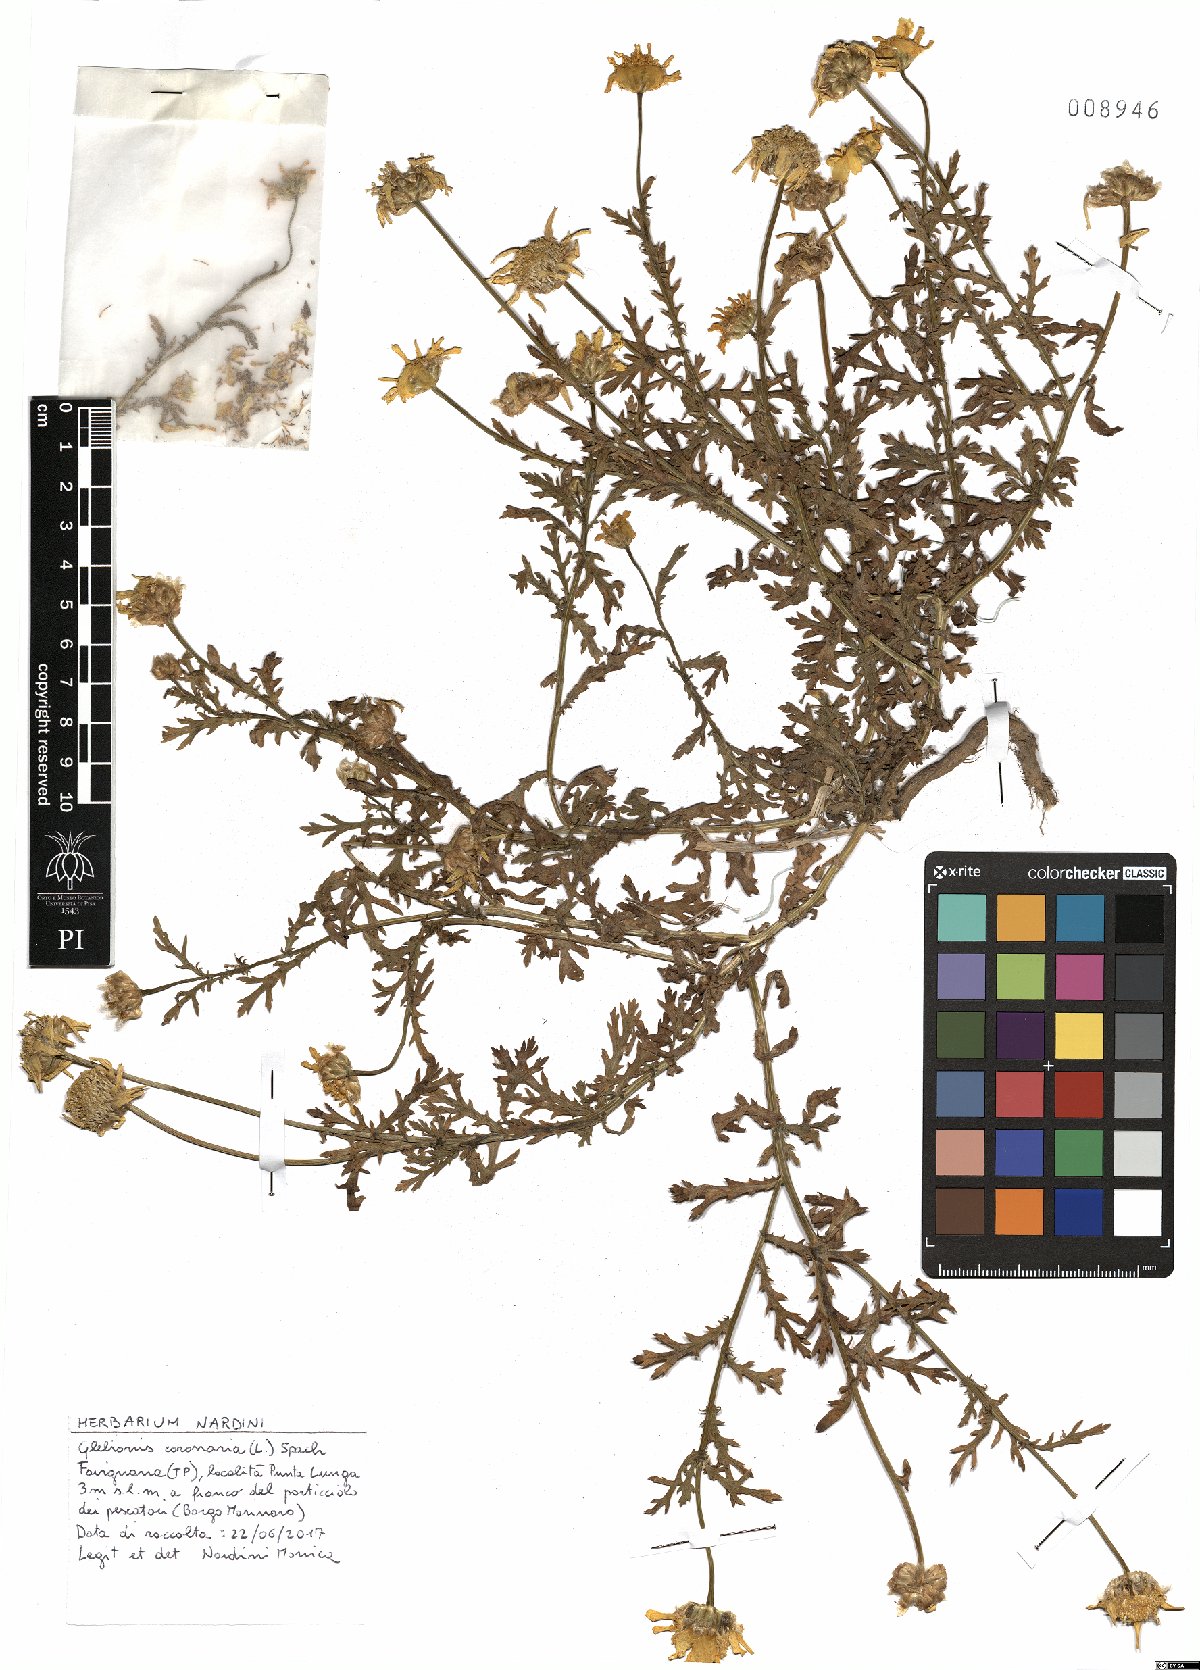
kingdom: Plantae
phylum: Tracheophyta
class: Magnoliopsida
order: Asterales
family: Asteraceae
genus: Glebionis
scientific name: Glebionis coronaria
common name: Crowndaisy
